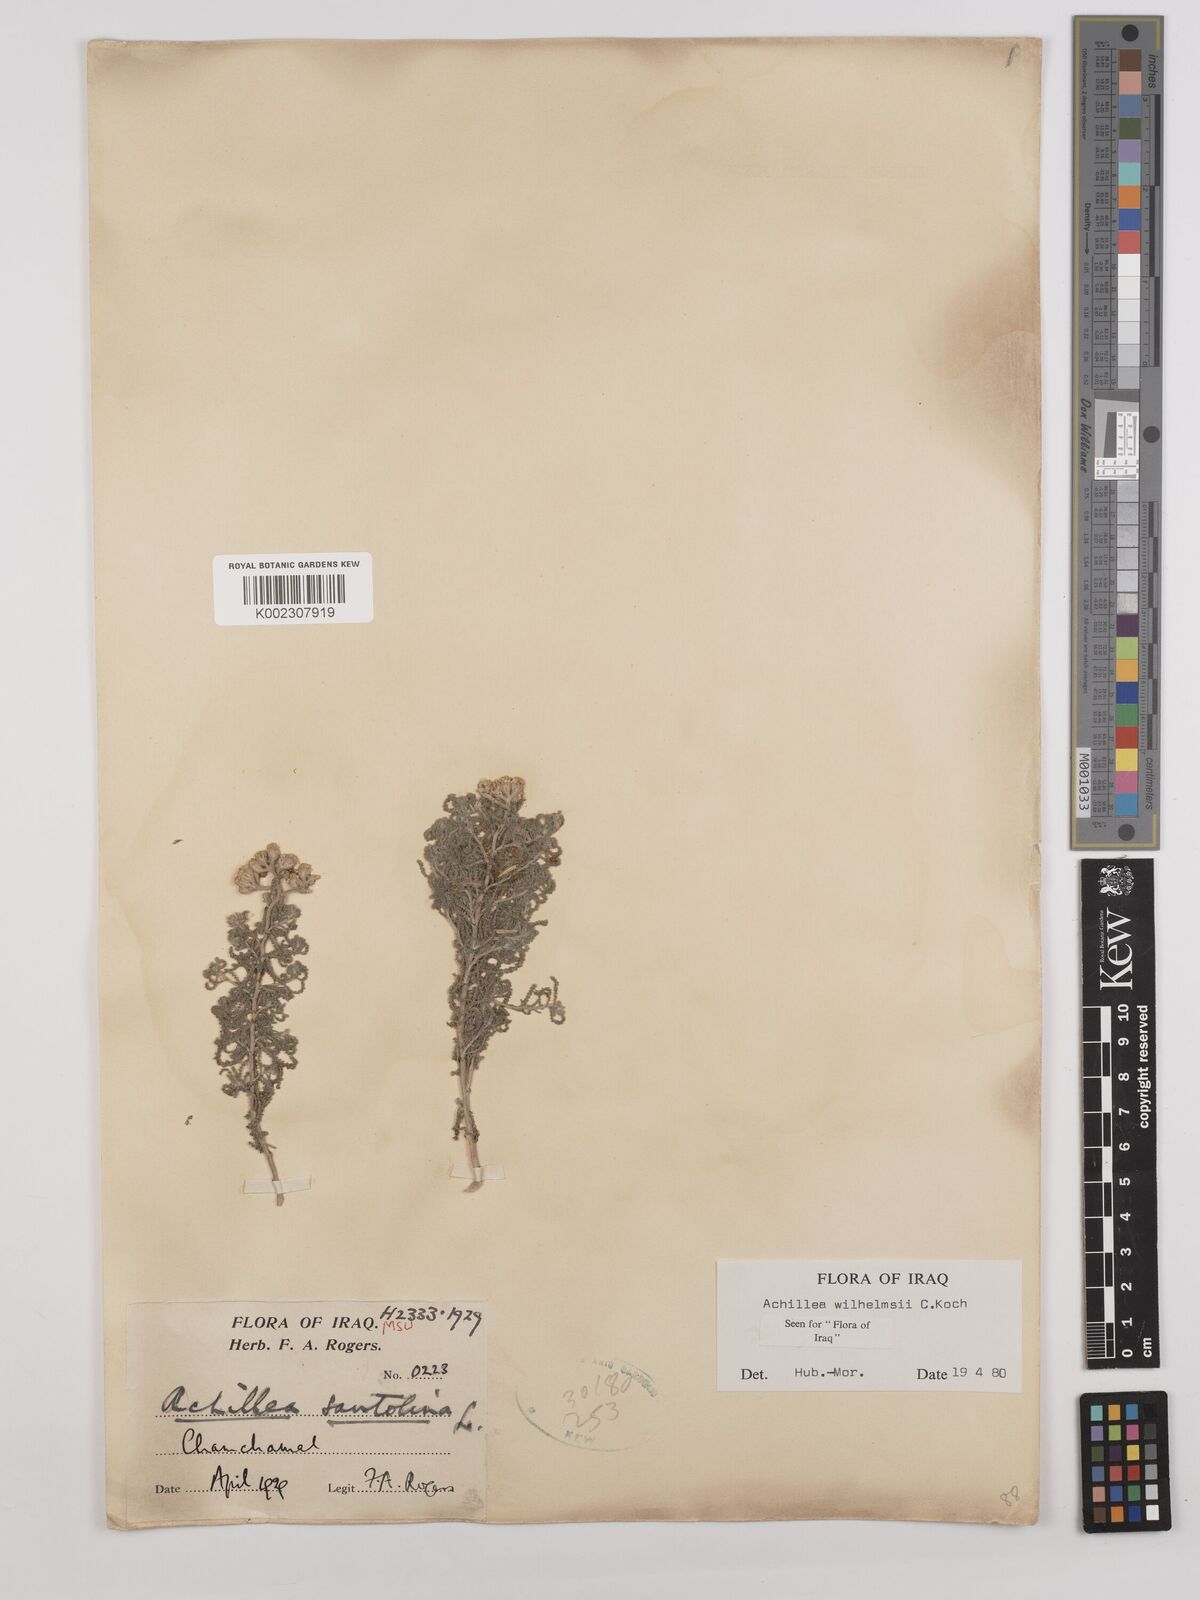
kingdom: Plantae
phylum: Tracheophyta
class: Magnoliopsida
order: Asterales
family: Asteraceae
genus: Achillea
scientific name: Achillea wilhelmsii
